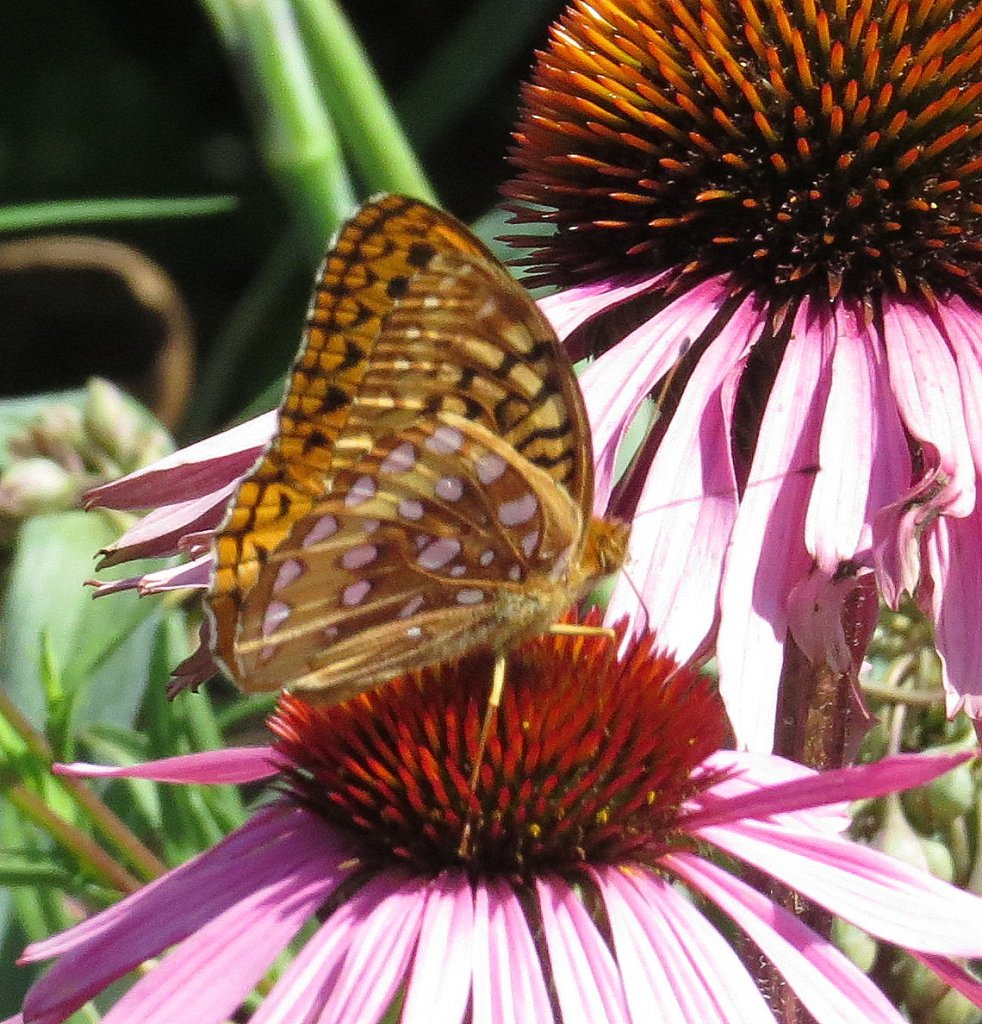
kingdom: Animalia
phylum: Arthropoda
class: Insecta
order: Lepidoptera
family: Nymphalidae
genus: Speyeria
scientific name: Speyeria cybele
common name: Great Spangled Fritillary
